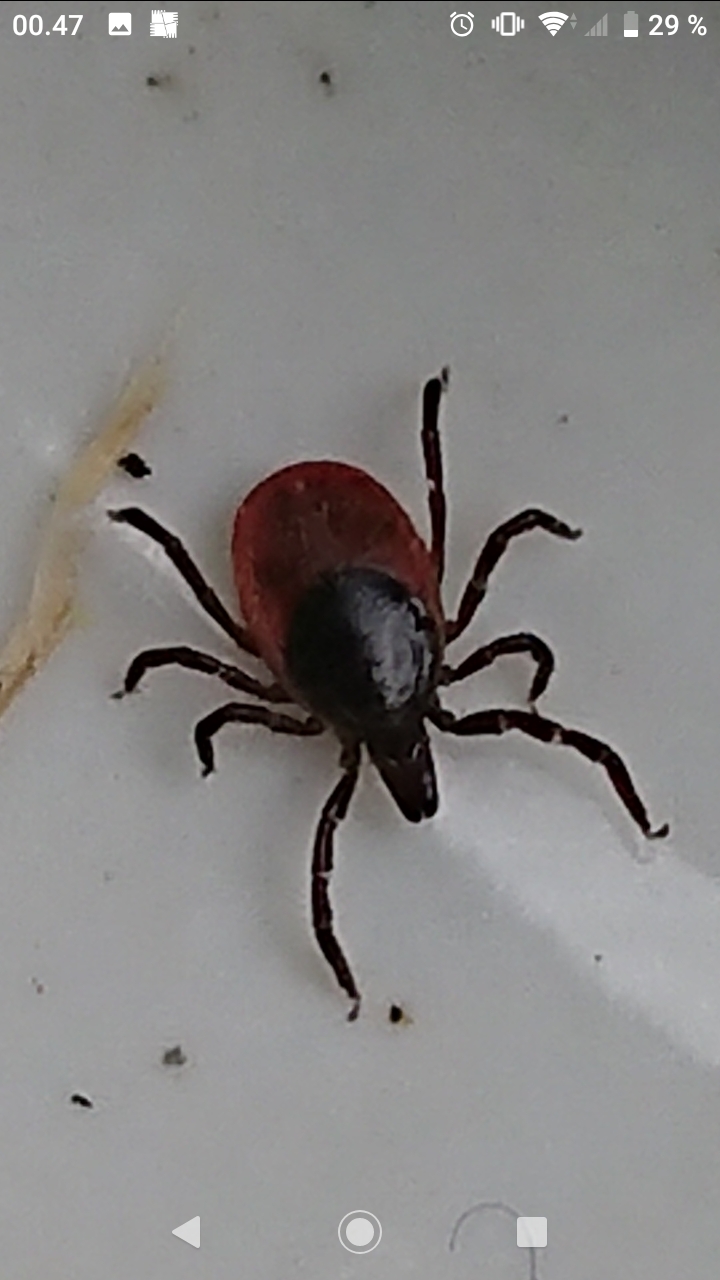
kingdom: Animalia
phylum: Arthropoda
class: Arachnida
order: Ixodida
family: Ixodidae
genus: Ixodes
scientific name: Ixodes ricinus
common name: Skovflåt
